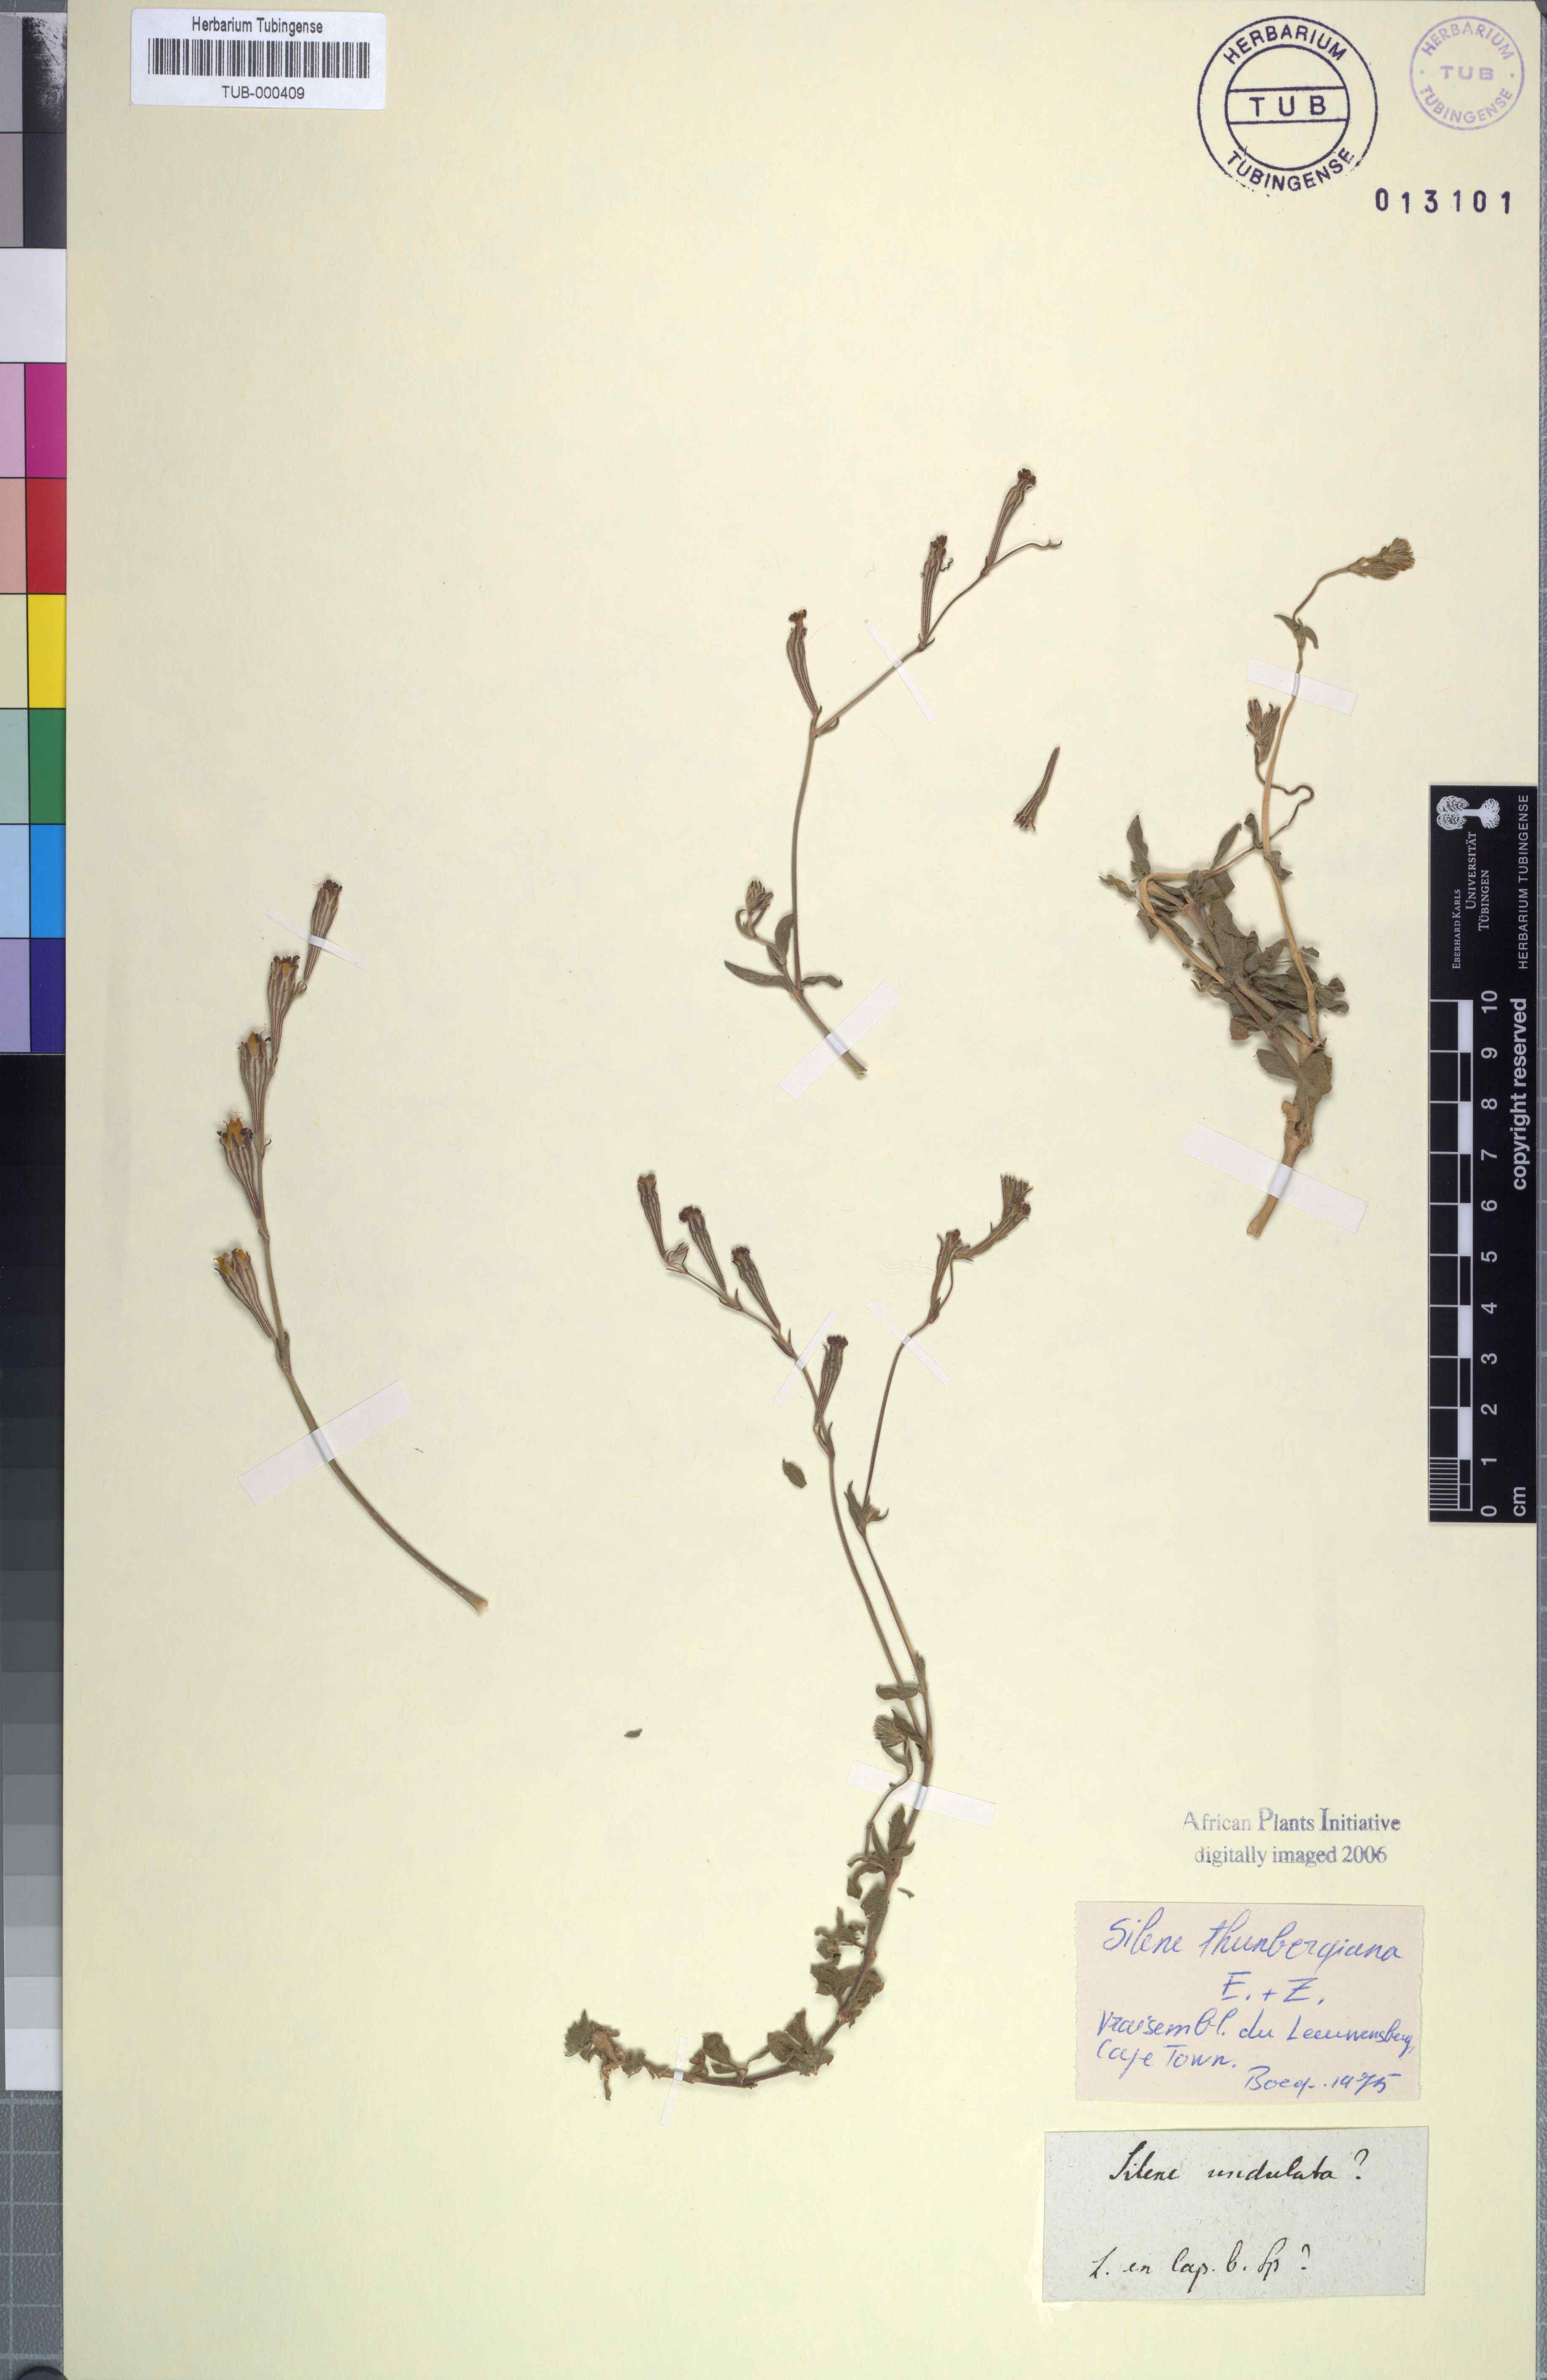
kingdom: Plantae
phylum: Tracheophyta
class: Magnoliopsida
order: Caryophyllales
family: Caryophyllaceae
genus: Silene
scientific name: Silene burchellii
